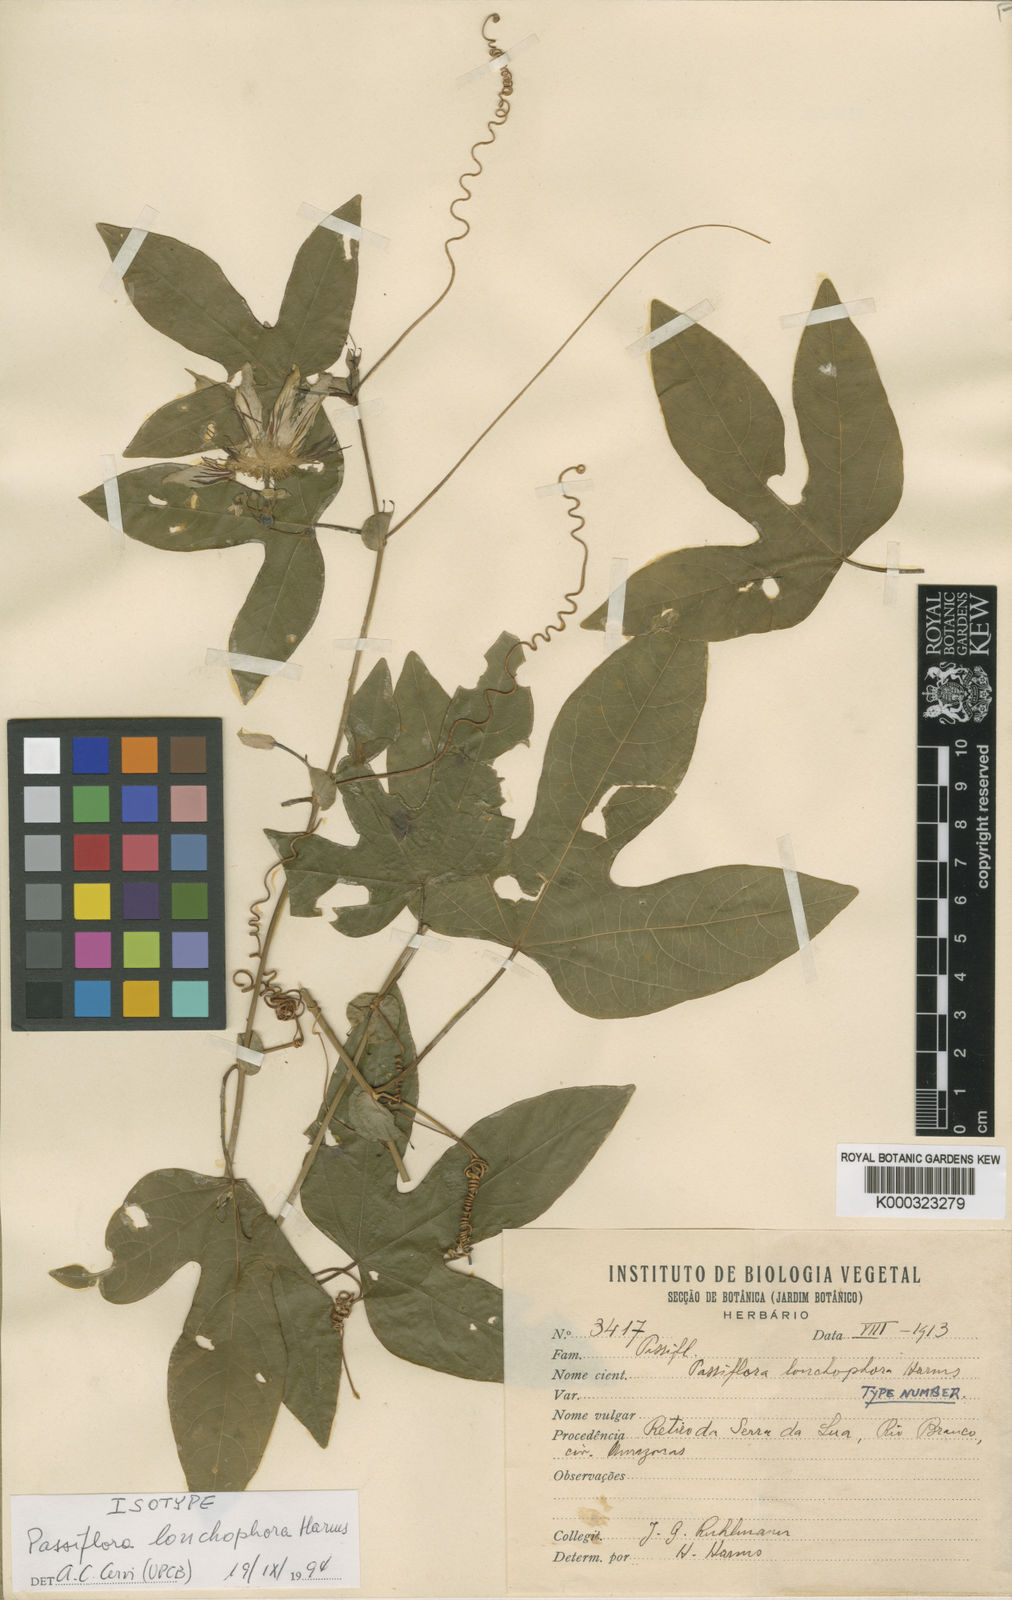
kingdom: Plantae
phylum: Tracheophyta
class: Magnoliopsida
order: Malpighiales
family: Passifloraceae
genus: Passiflora
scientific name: Passiflora retipetala
